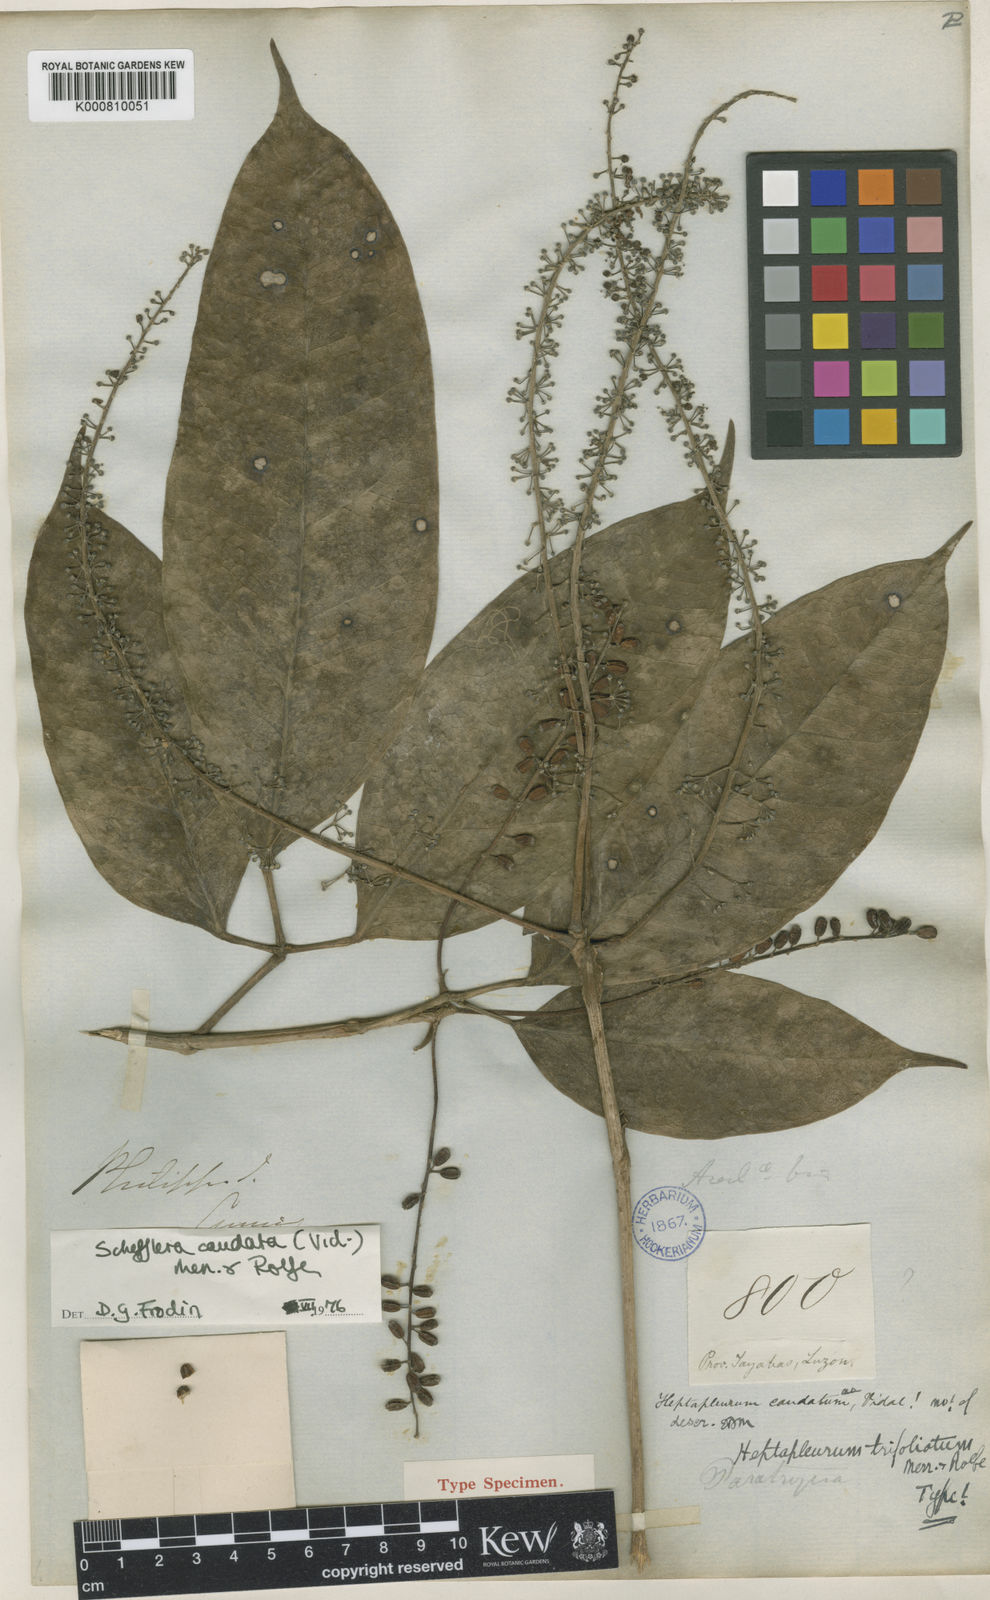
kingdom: Plantae
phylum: Tracheophyta
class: Magnoliopsida
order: Apiales
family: Araliaceae
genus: Heptapleurum
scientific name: Heptapleurum caudatum
